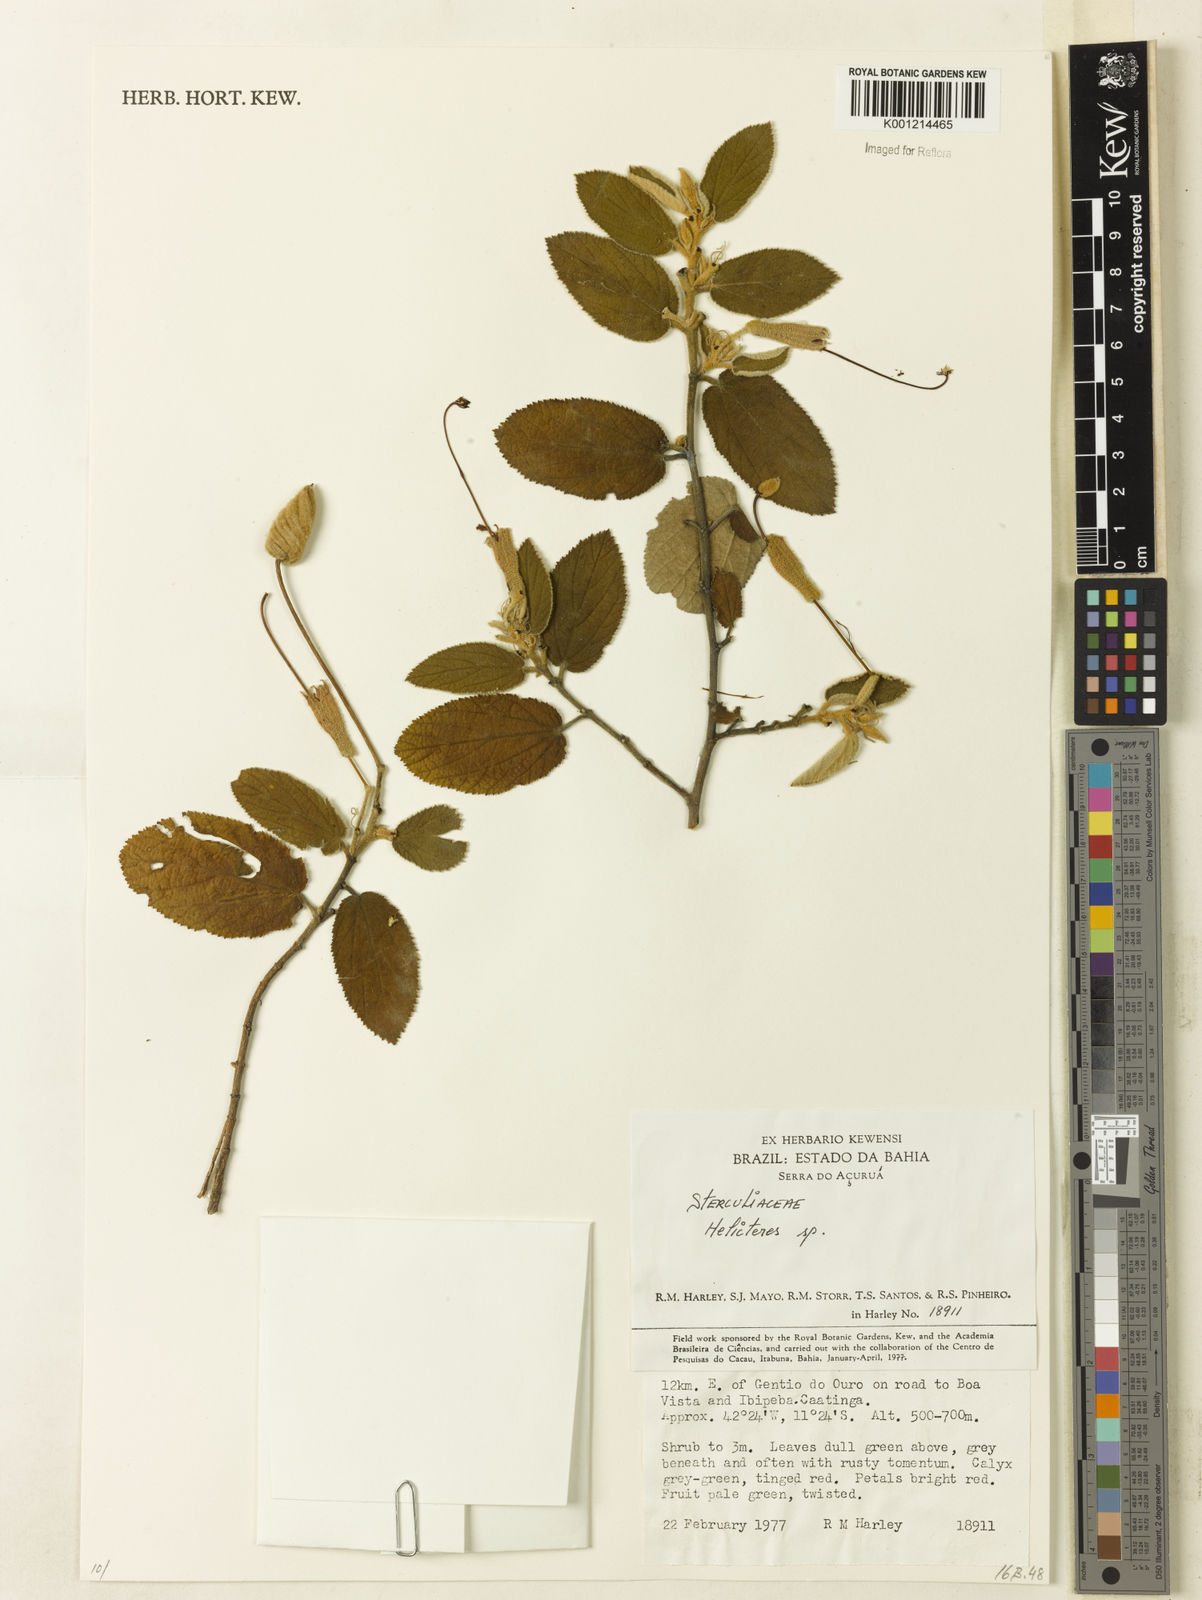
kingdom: Plantae
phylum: Tracheophyta
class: Magnoliopsida
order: Malvales
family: Malvaceae
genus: Helicteres
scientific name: Helicteres
